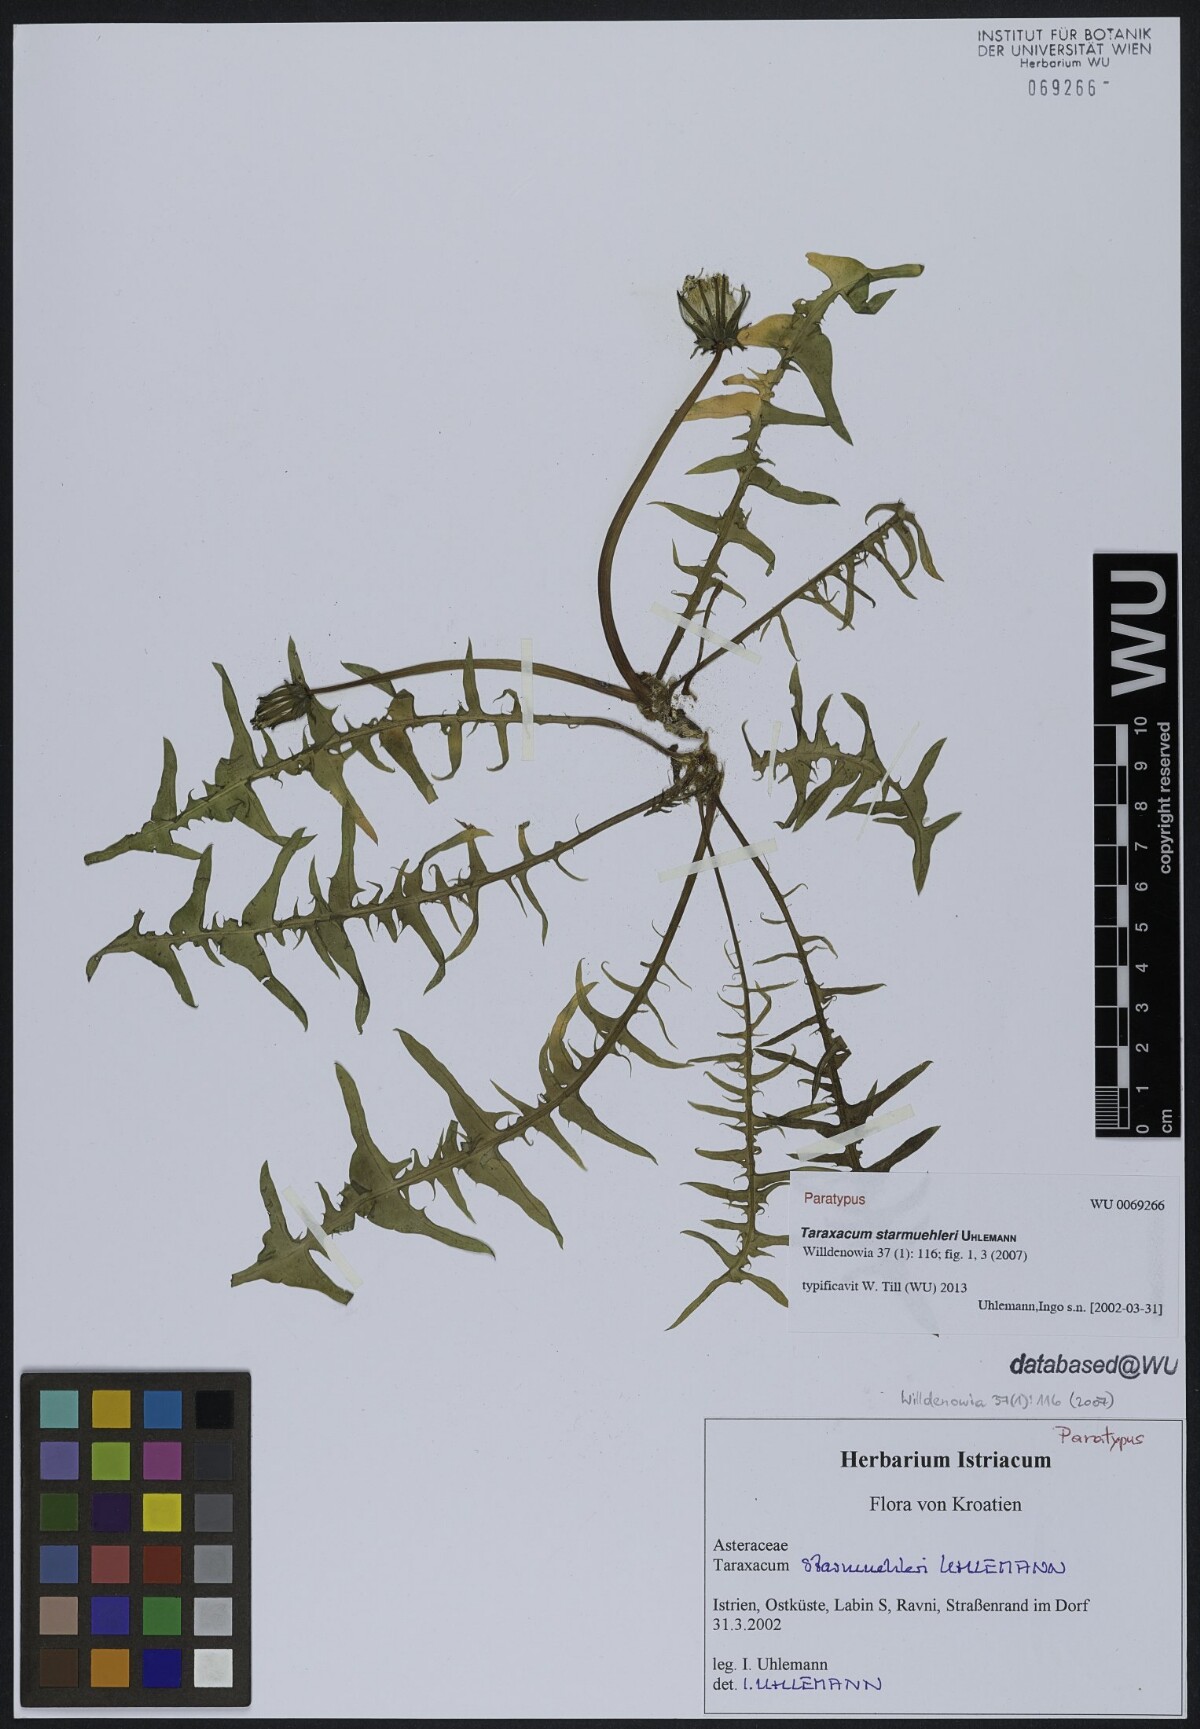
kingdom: Plantae
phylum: Tracheophyta
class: Magnoliopsida
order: Asterales
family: Asteraceae
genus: Taraxacum
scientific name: Taraxacum starmuehleri
